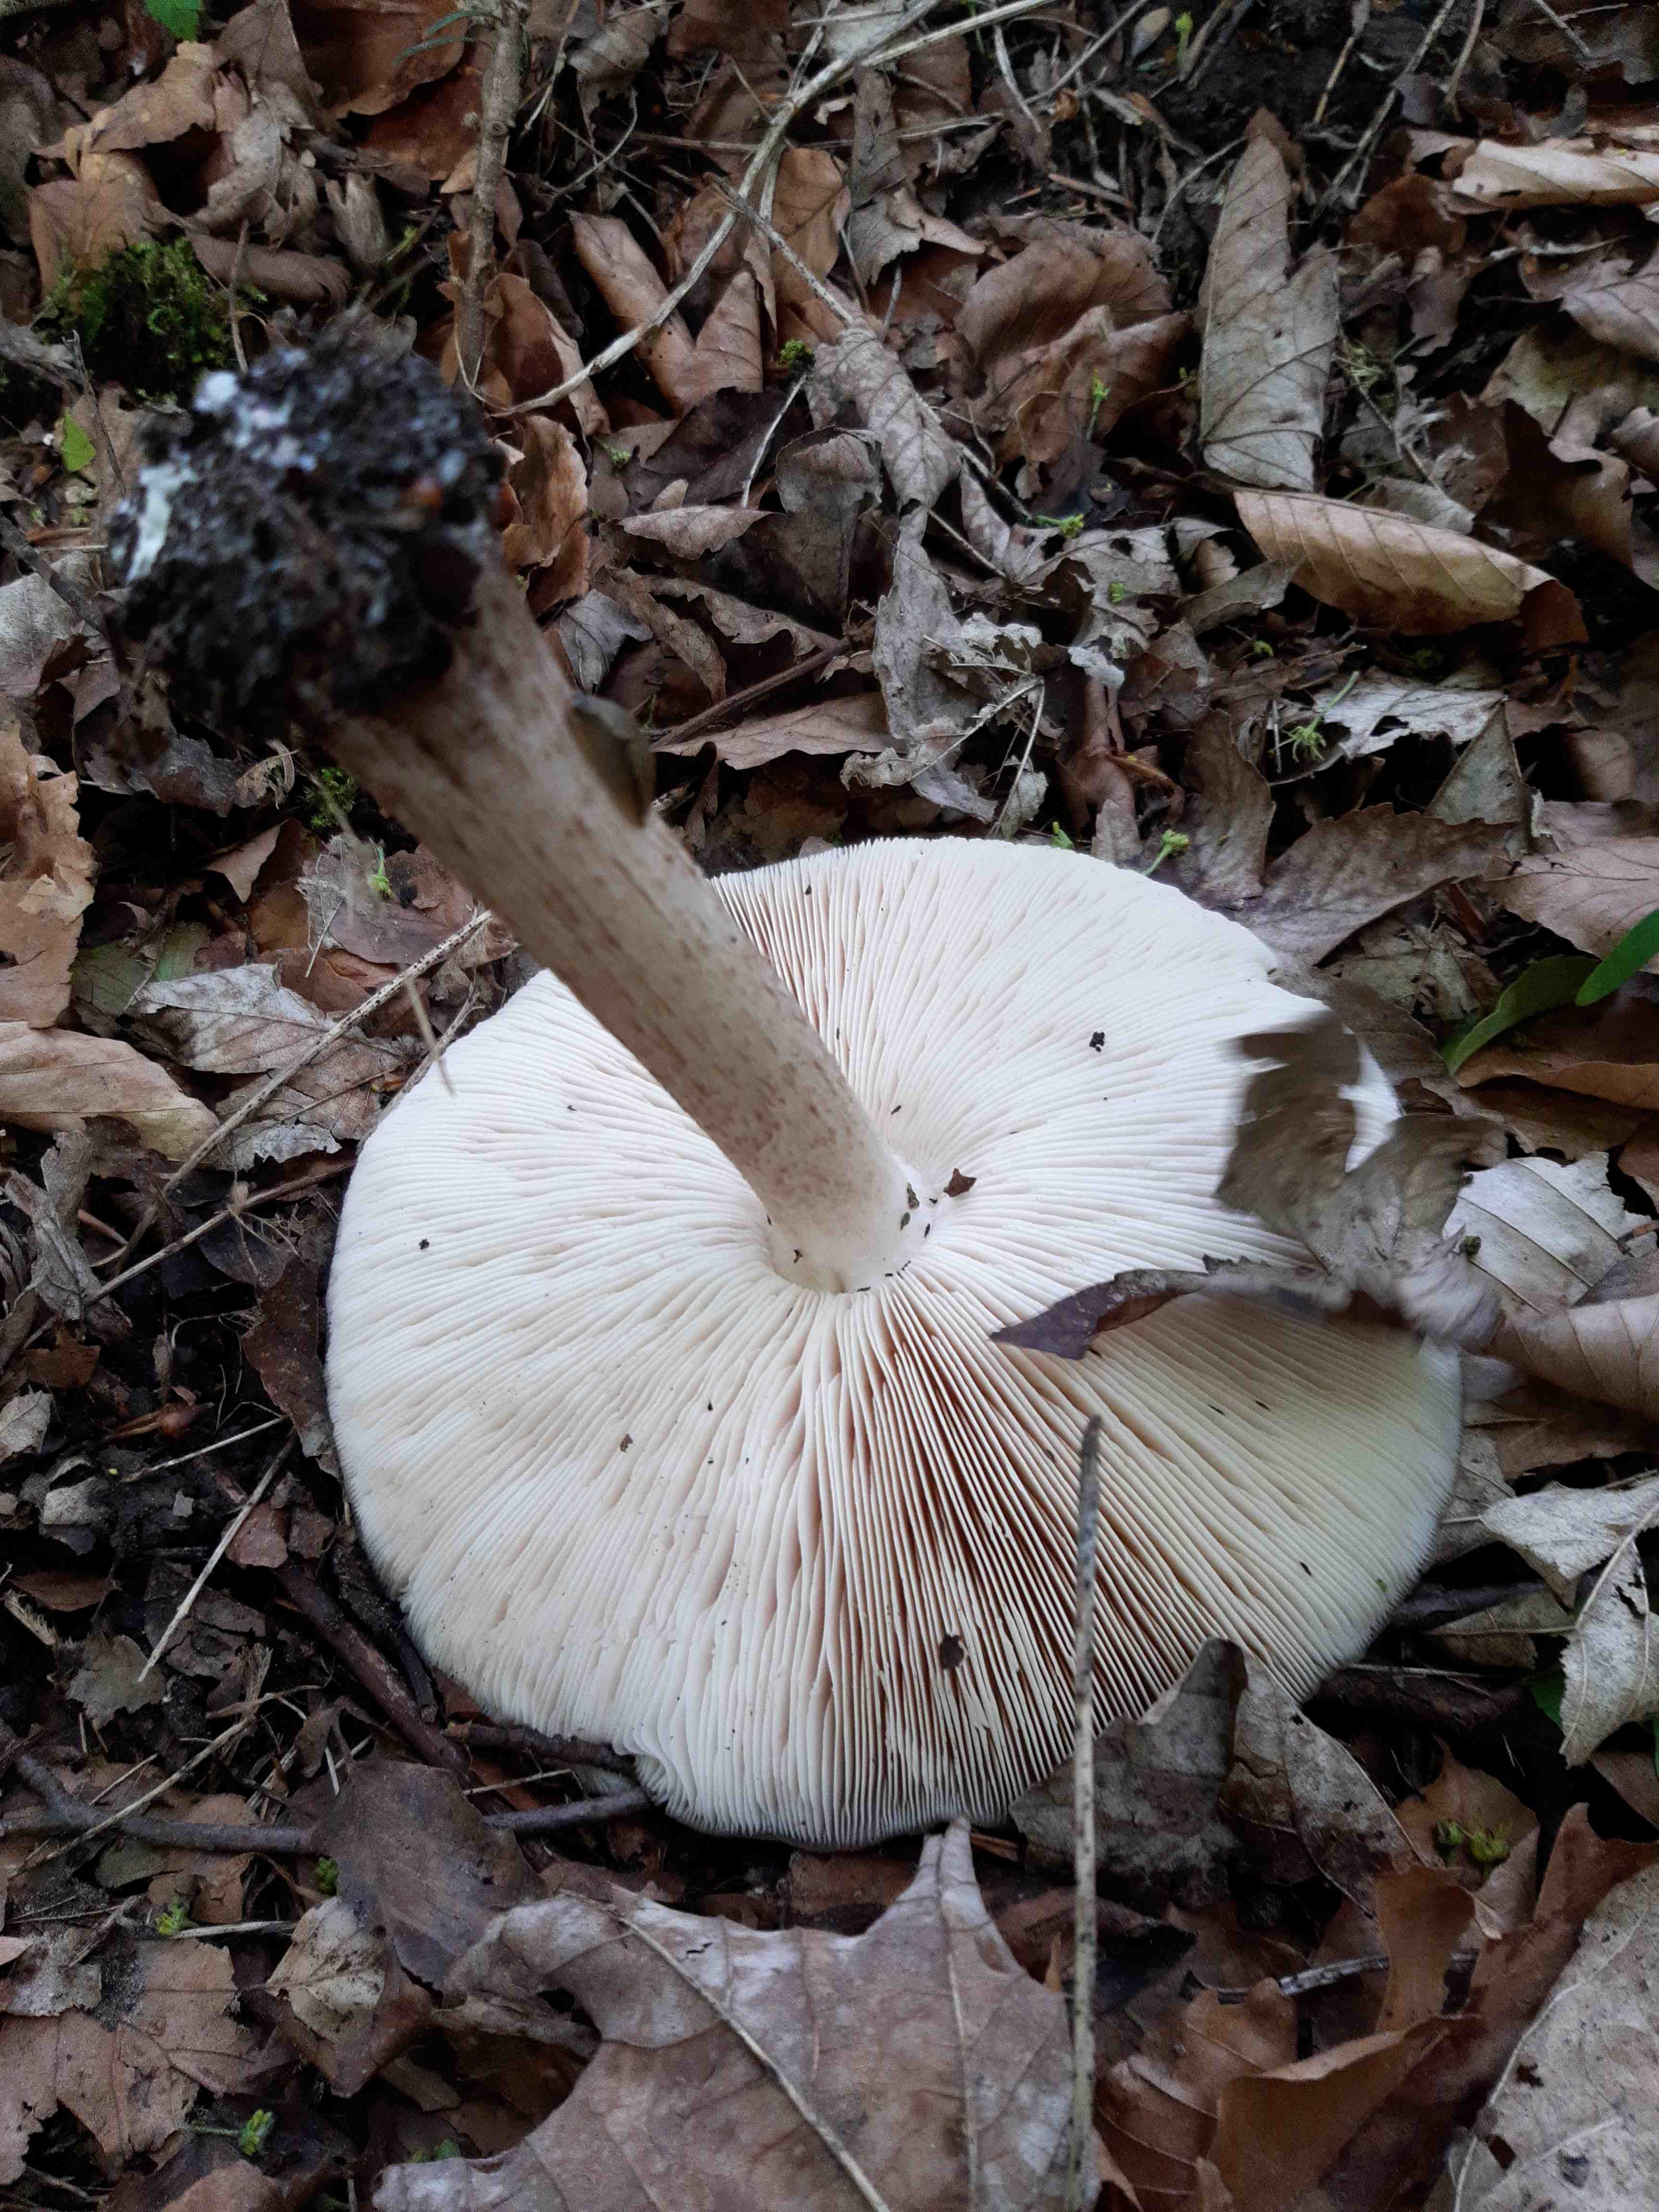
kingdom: Fungi
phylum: Basidiomycota
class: Agaricomycetes
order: Agaricales
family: Pluteaceae
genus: Pluteus
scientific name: Pluteus cervinus
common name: sodfarvet skærmhat
